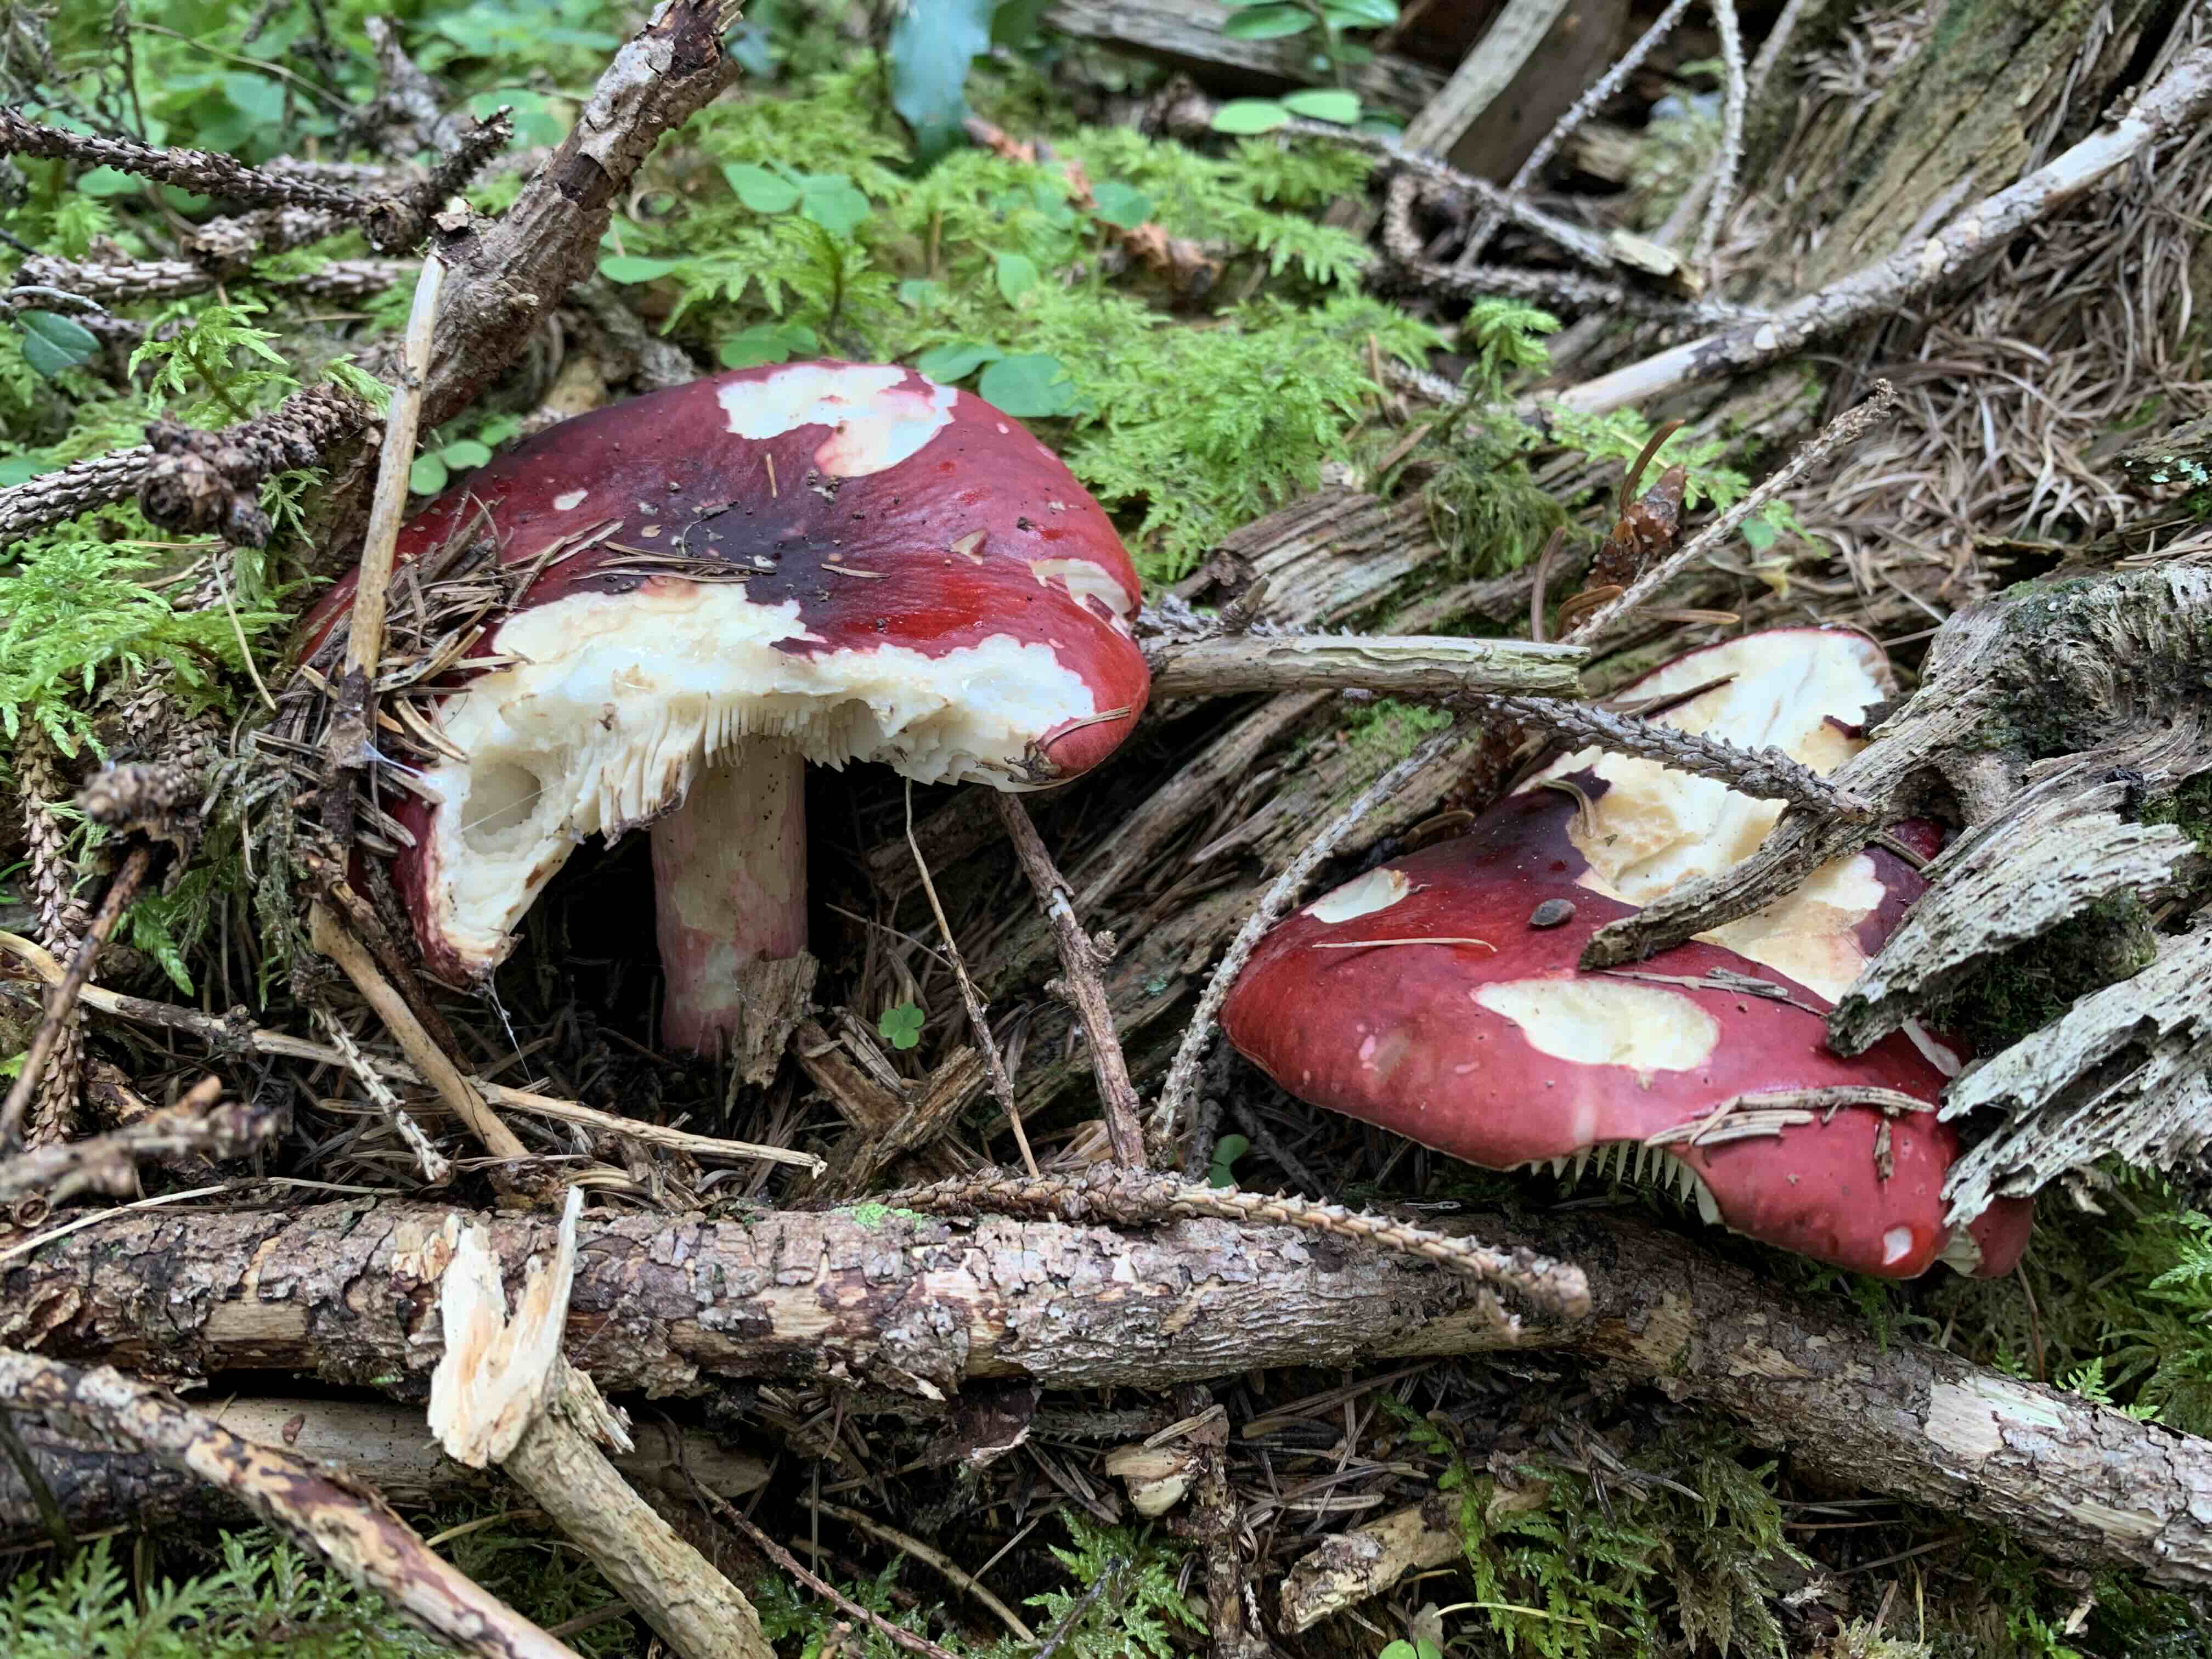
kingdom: Fungi
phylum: Basidiomycota
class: Agaricomycetes
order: Russulales
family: Russulaceae
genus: Russula
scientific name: Russula
